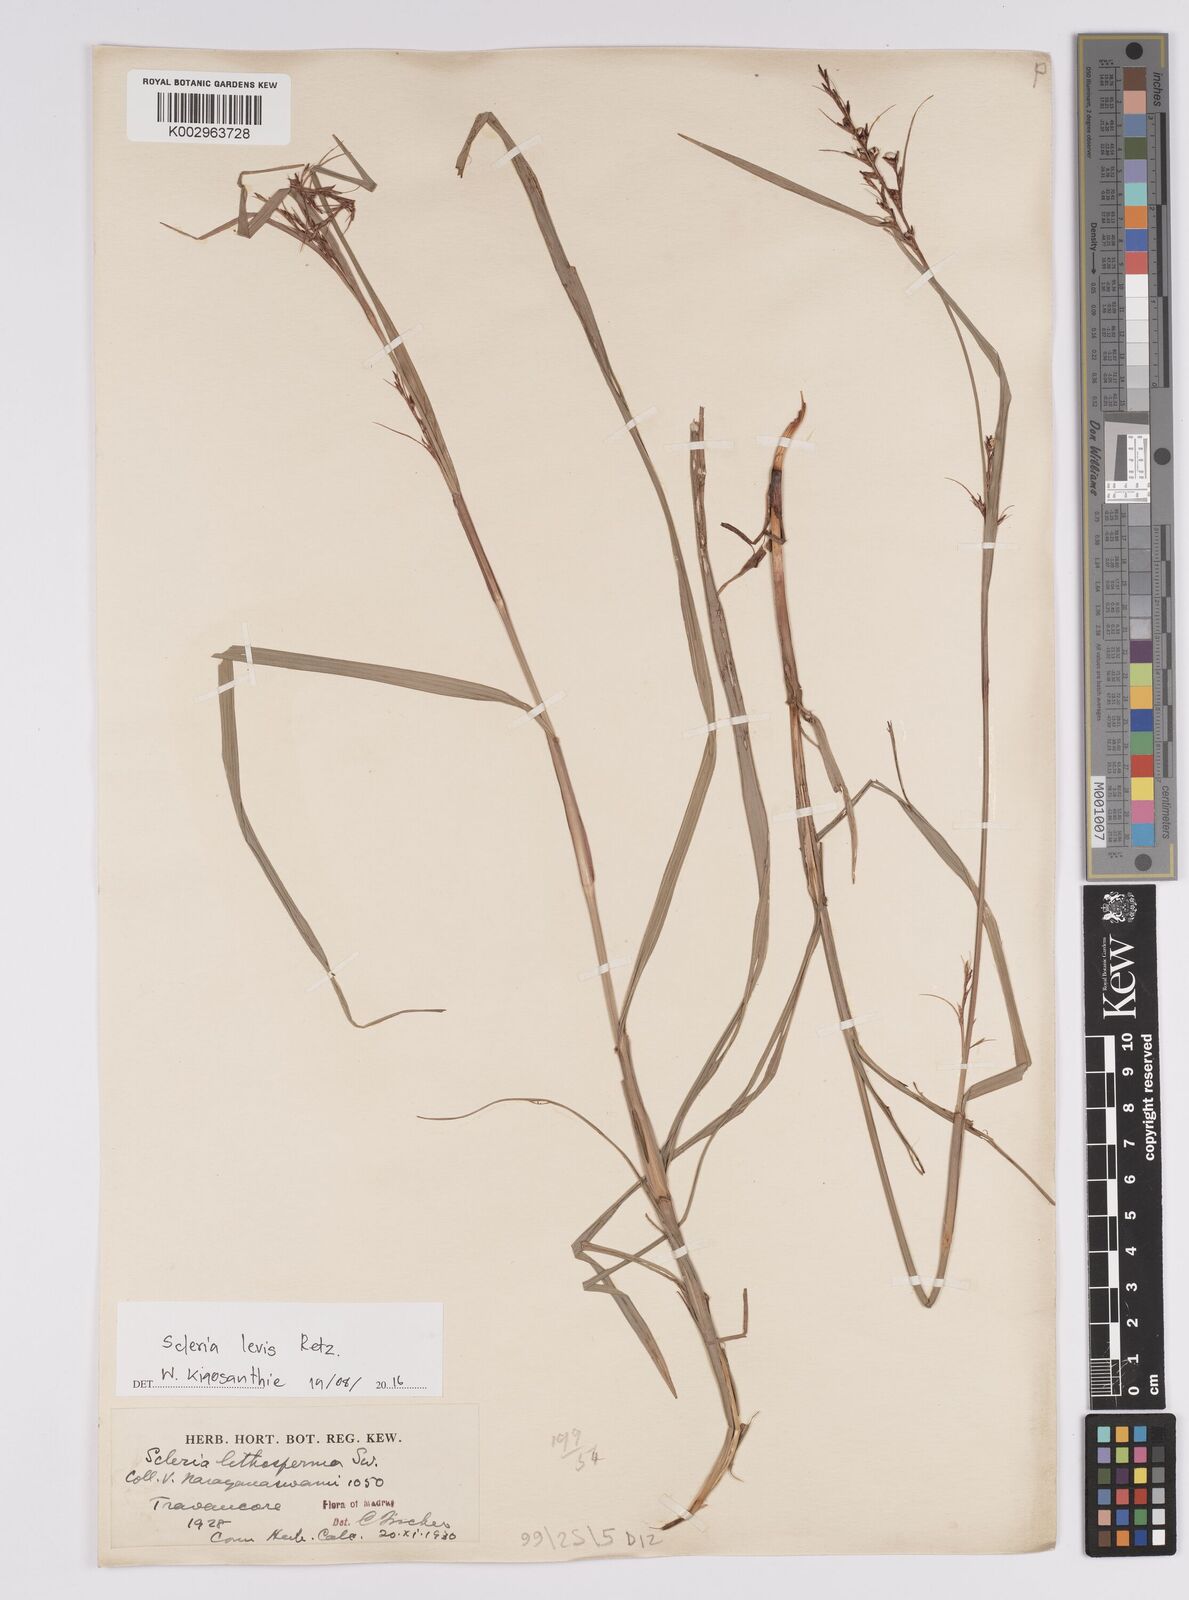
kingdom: Plantae
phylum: Tracheophyta
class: Liliopsida
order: Poales
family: Cyperaceae
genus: Scleria
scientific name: Scleria levis
